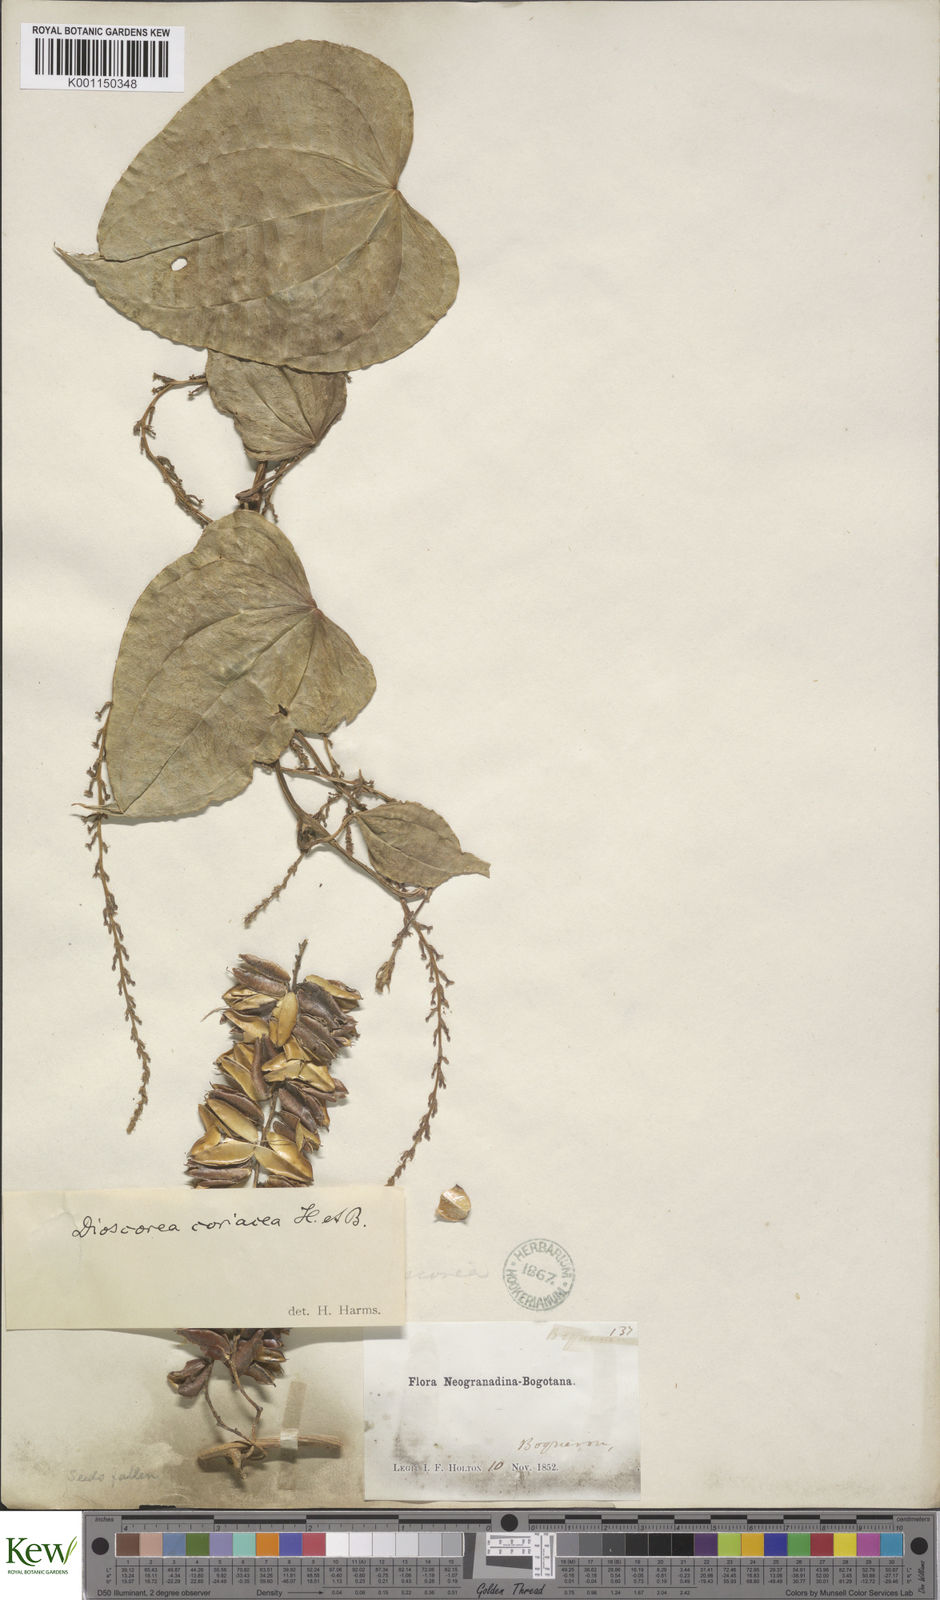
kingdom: Plantae
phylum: Tracheophyta
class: Liliopsida
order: Dioscoreales
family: Dioscoreaceae
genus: Dioscorea
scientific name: Dioscorea coriacea
